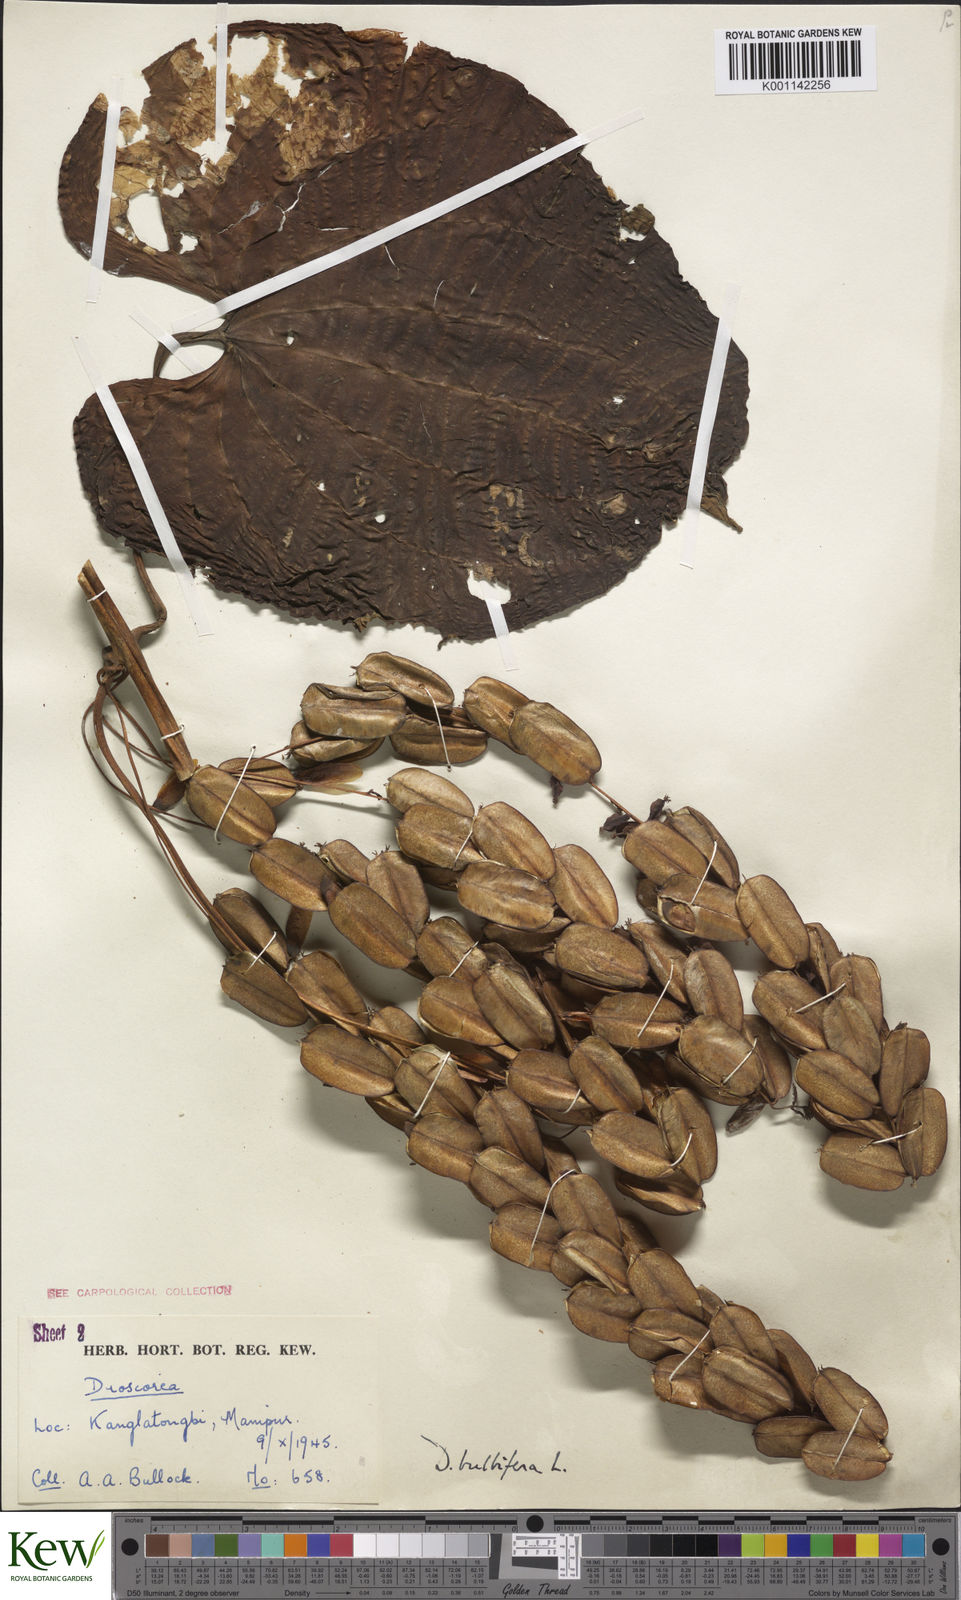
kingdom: Plantae
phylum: Tracheophyta
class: Liliopsida
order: Dioscoreales
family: Dioscoreaceae
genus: Dioscorea
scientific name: Dioscorea bulbifera
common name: Air yam
